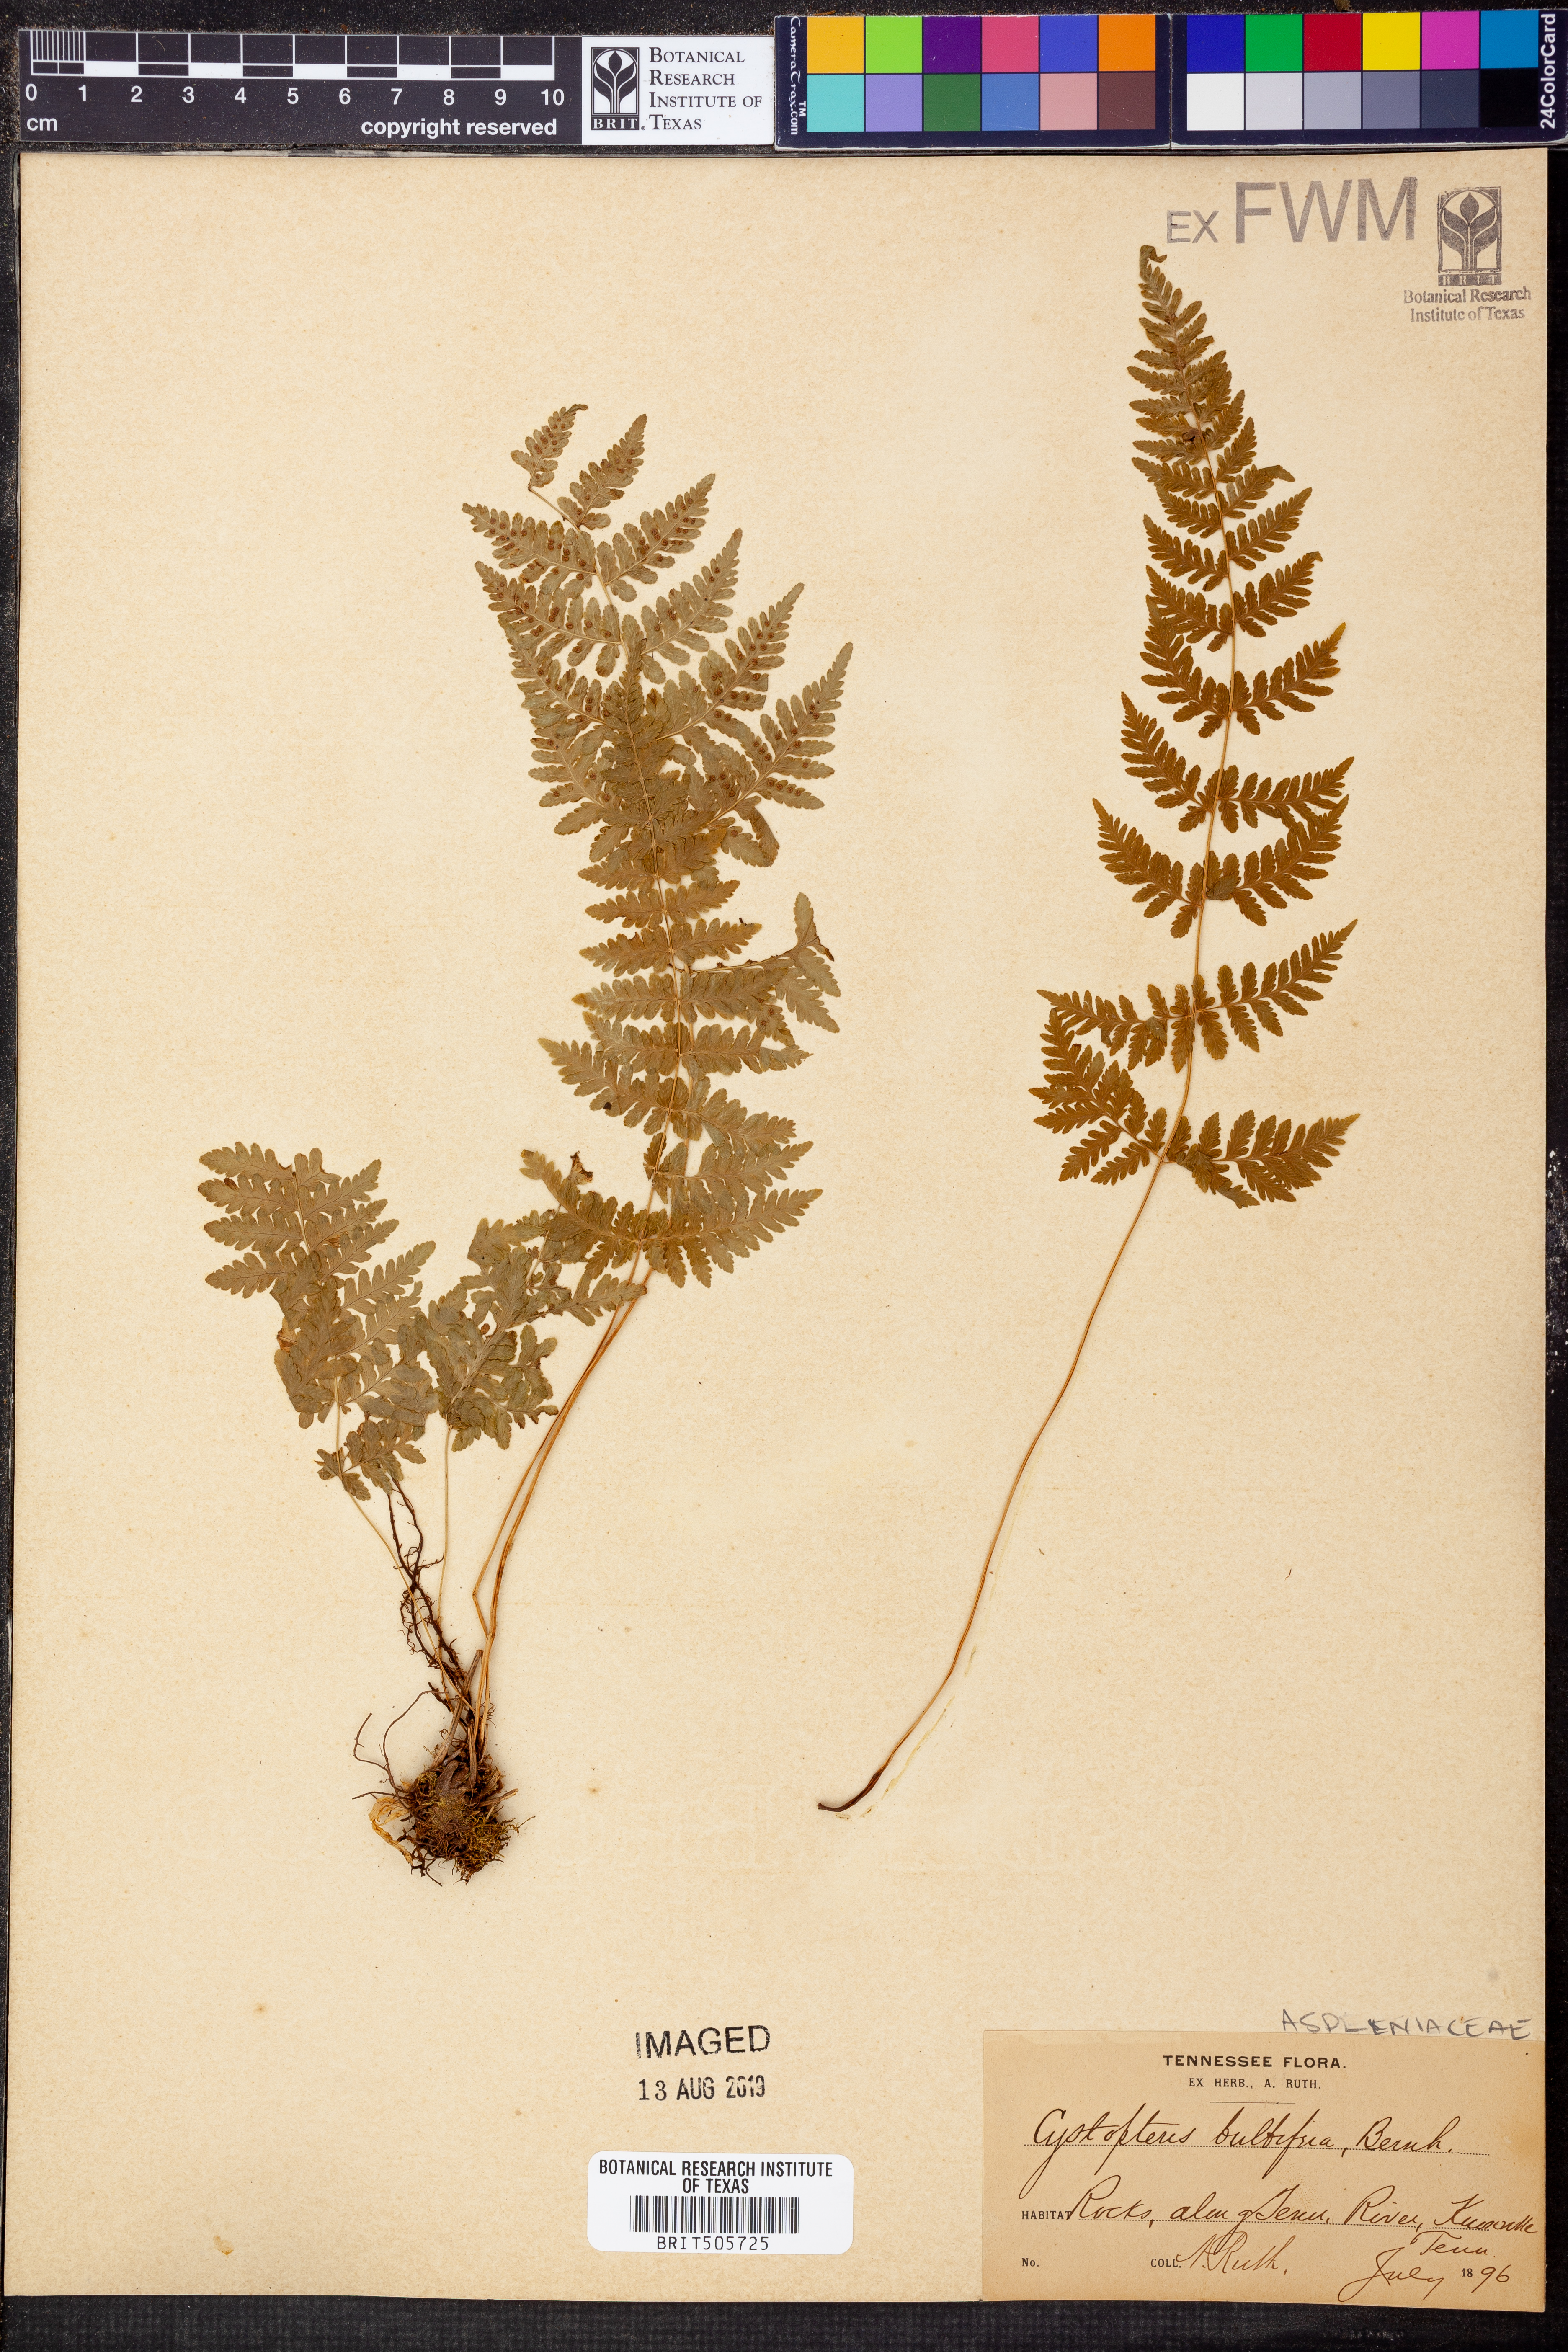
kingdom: Plantae
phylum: Tracheophyta
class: Polypodiopsida
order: Polypodiales
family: Cystopteridaceae
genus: Cystopteris
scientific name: Cystopteris bulbifera
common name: Bulblet bladder fern
